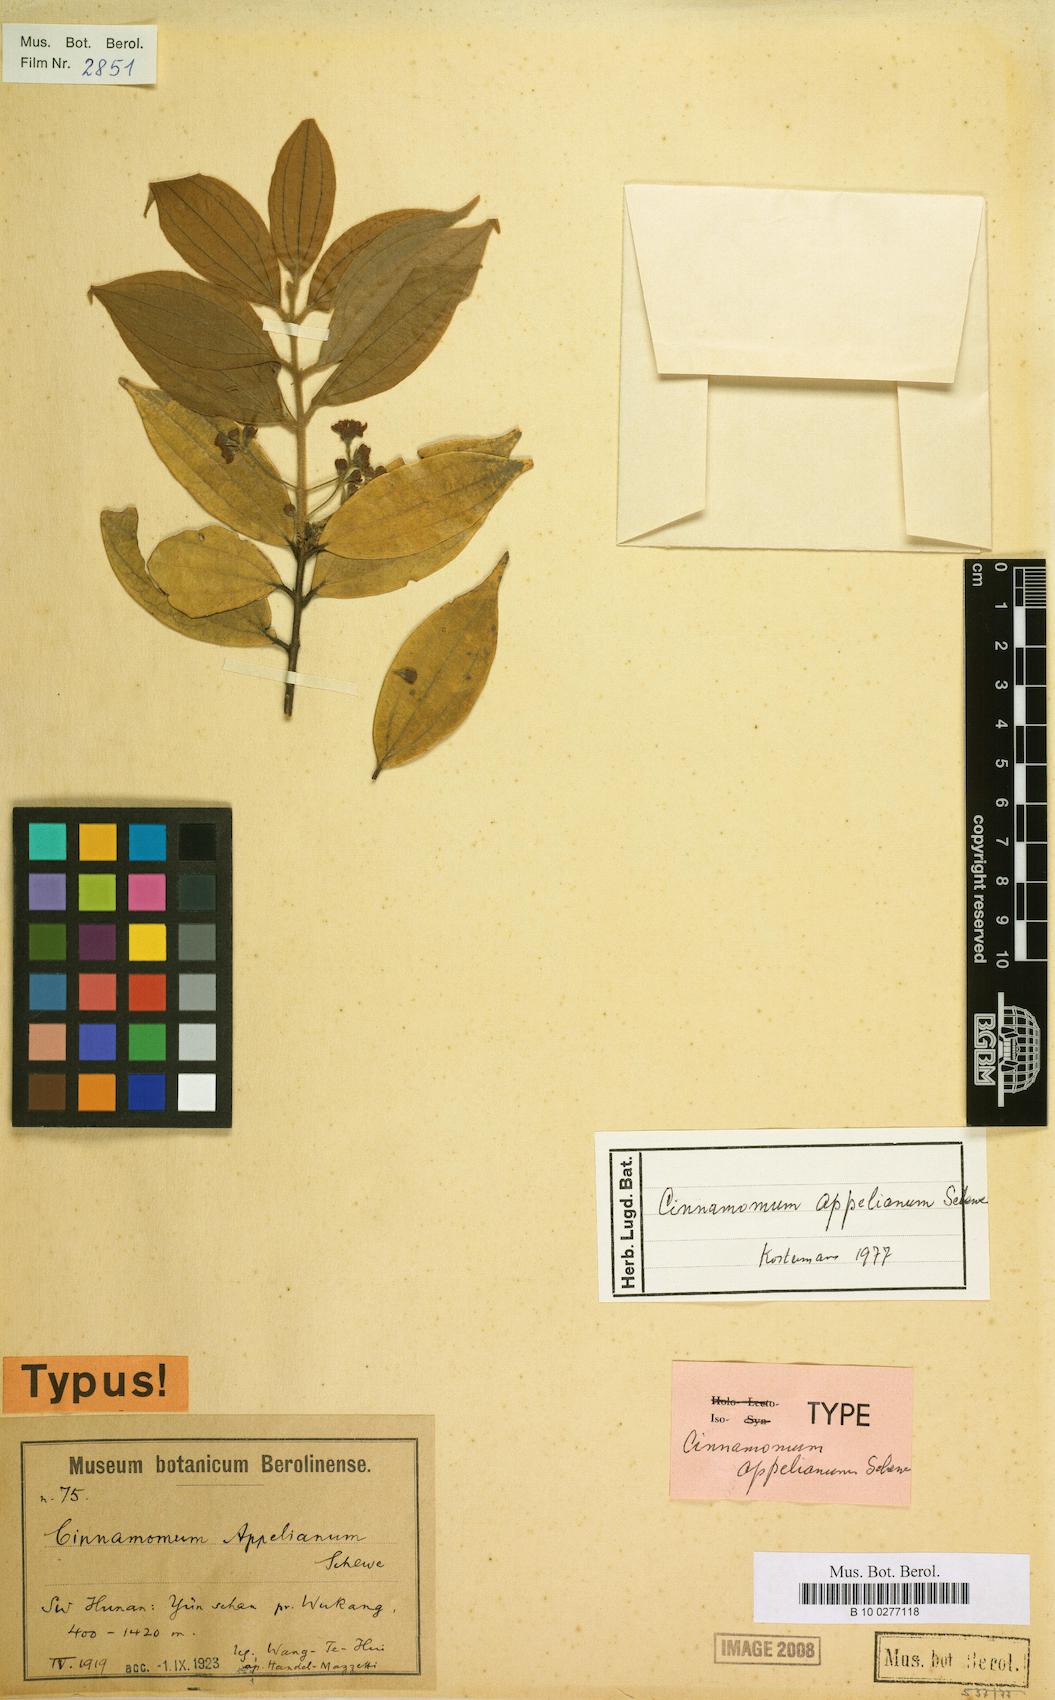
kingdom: Plantae
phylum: Tracheophyta
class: Magnoliopsida
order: Laurales
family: Lauraceae
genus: Cinnamomum
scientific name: Cinnamomum appelianum
